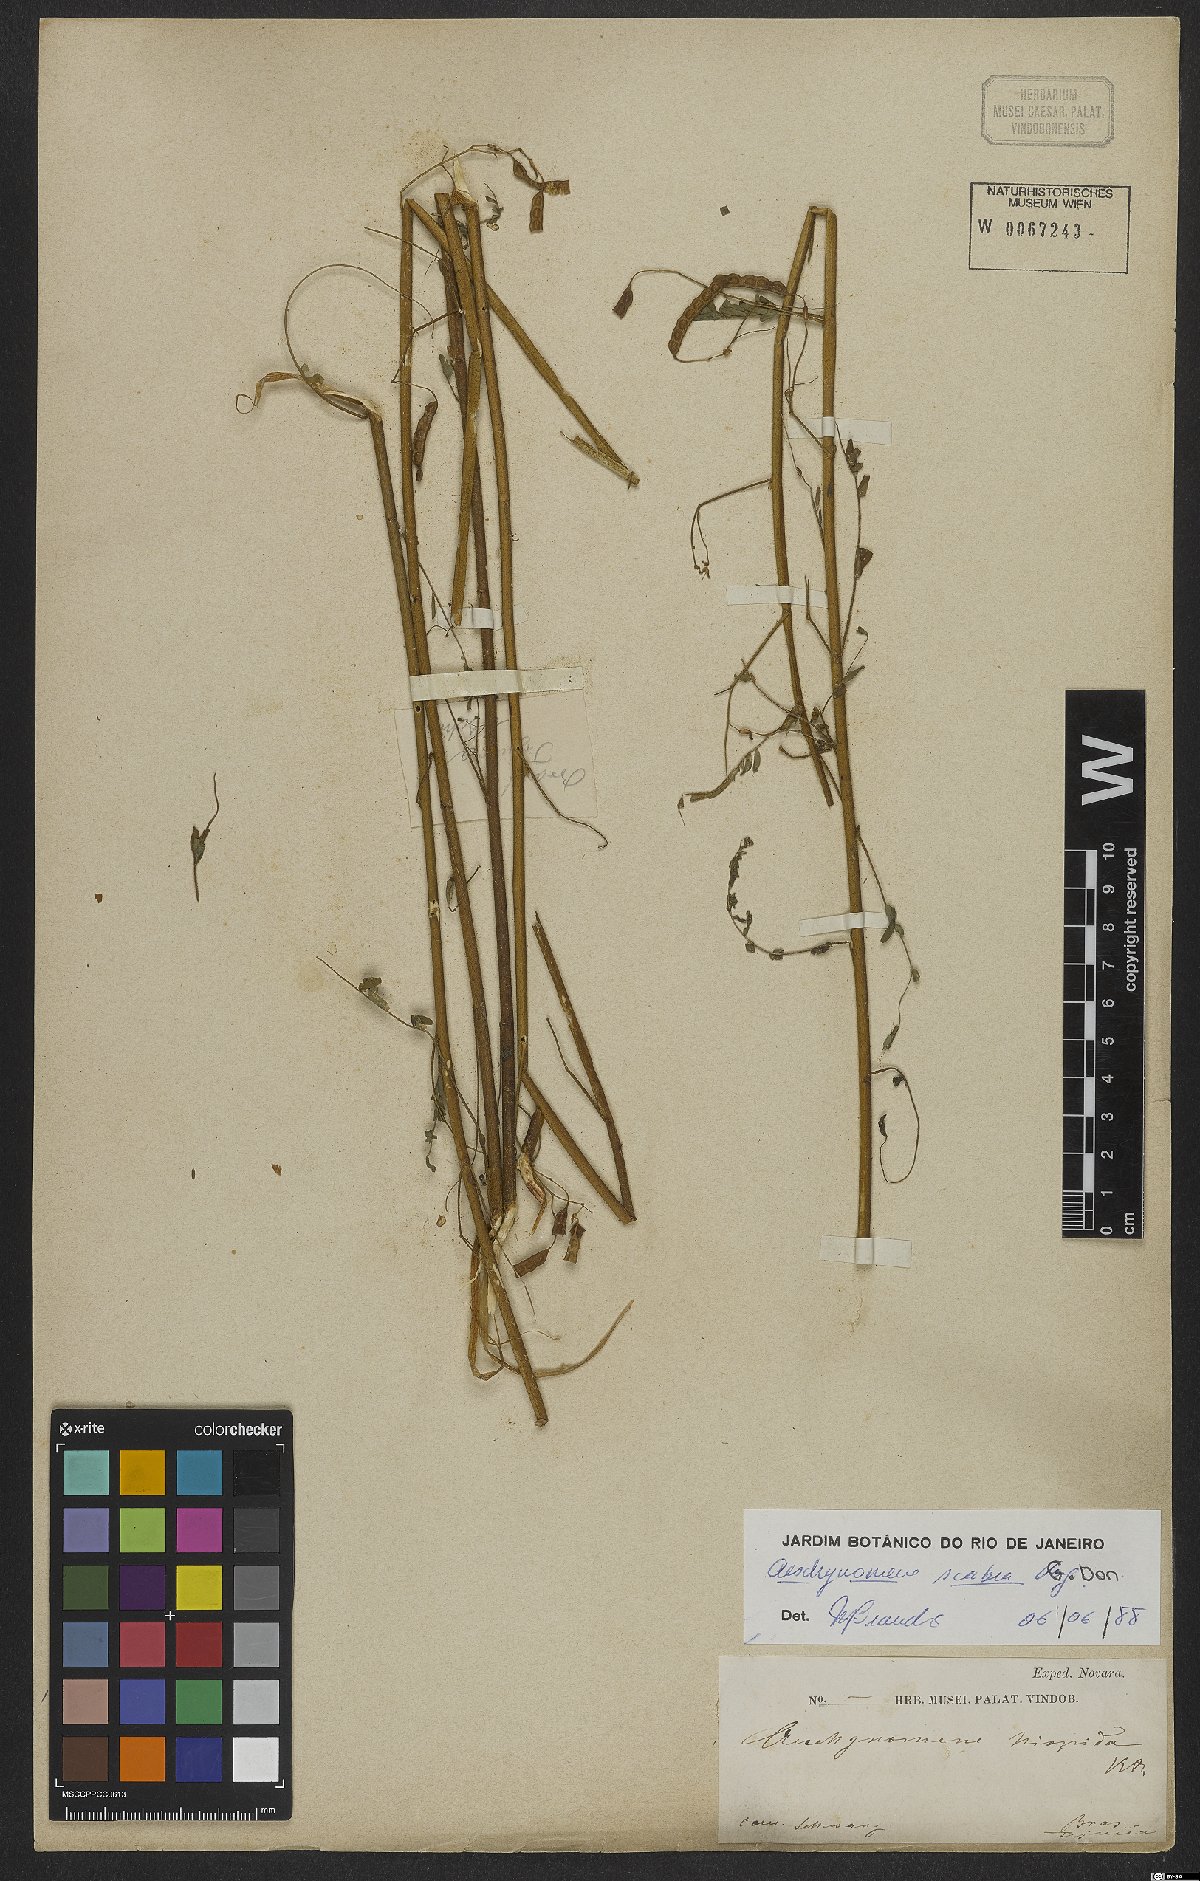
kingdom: Plantae
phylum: Tracheophyta
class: Magnoliopsida
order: Fabales
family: Fabaceae
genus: Aeschynomene
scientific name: Aeschynomene scabra
